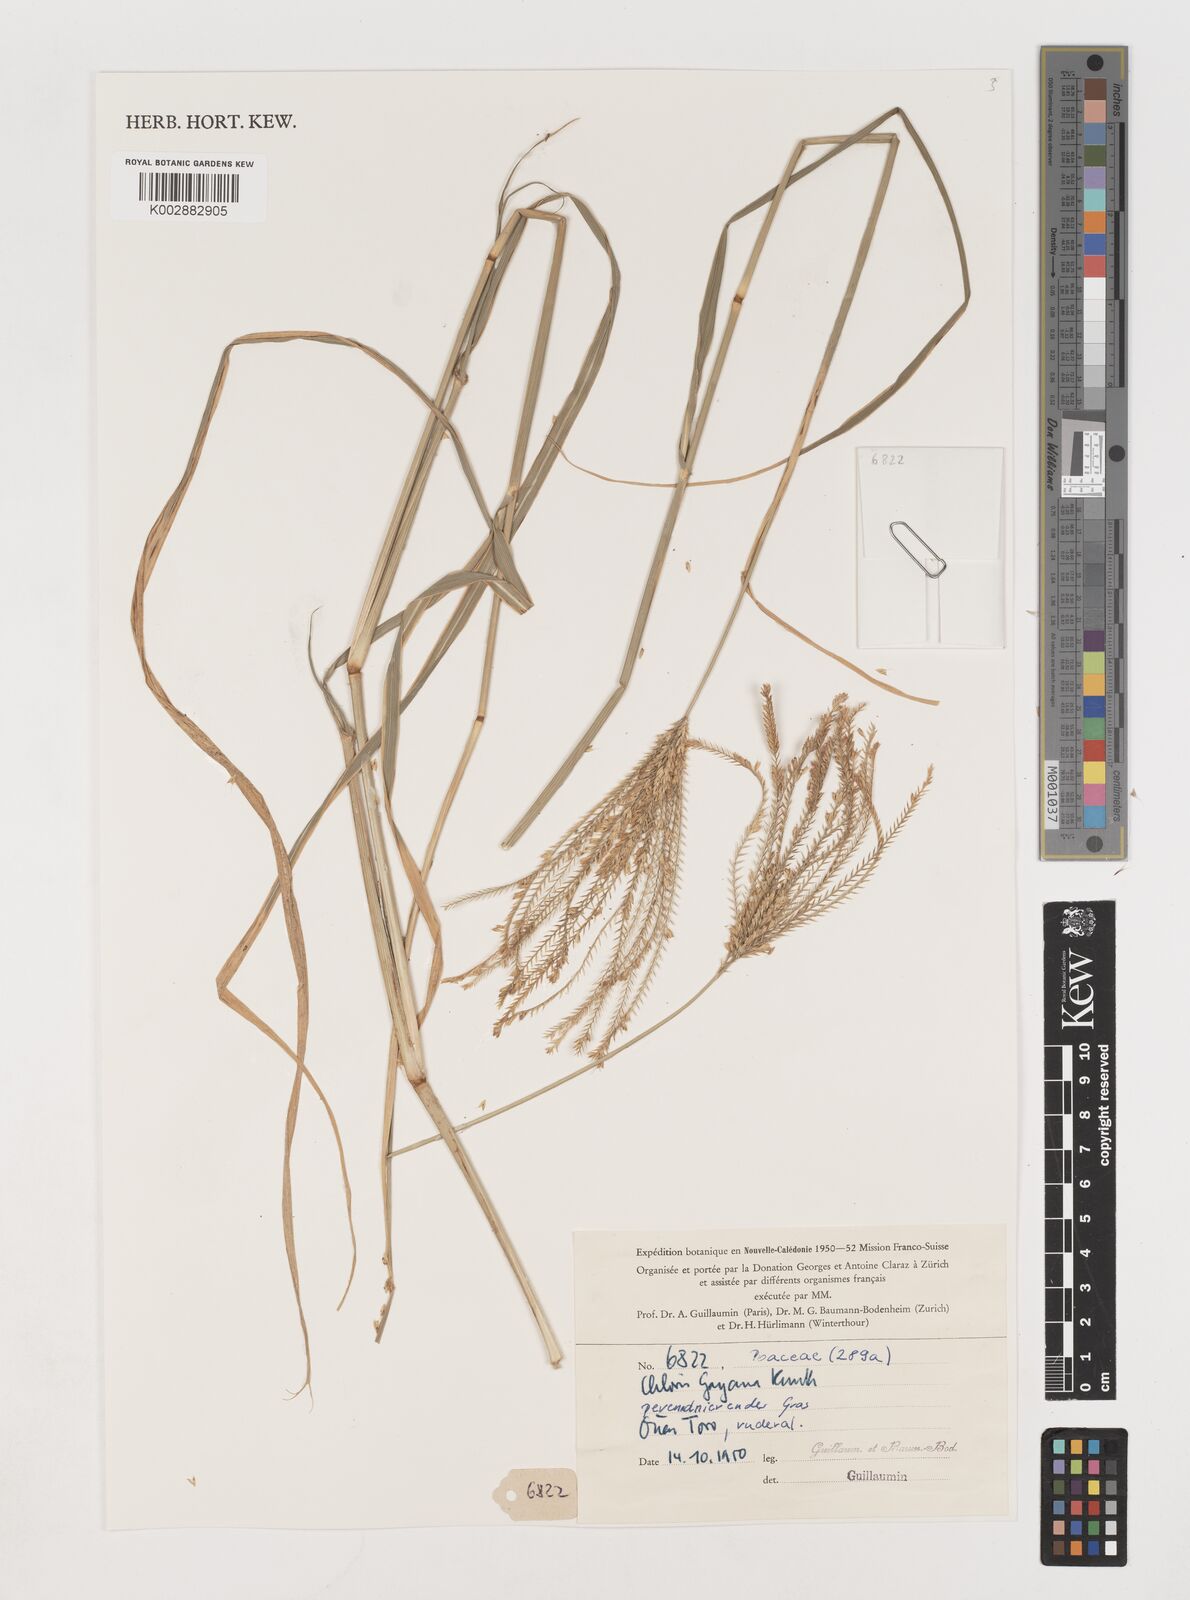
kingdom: Plantae
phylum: Tracheophyta
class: Liliopsida
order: Poales
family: Poaceae
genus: Chloris
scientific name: Chloris gayana
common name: Rhodes grass
